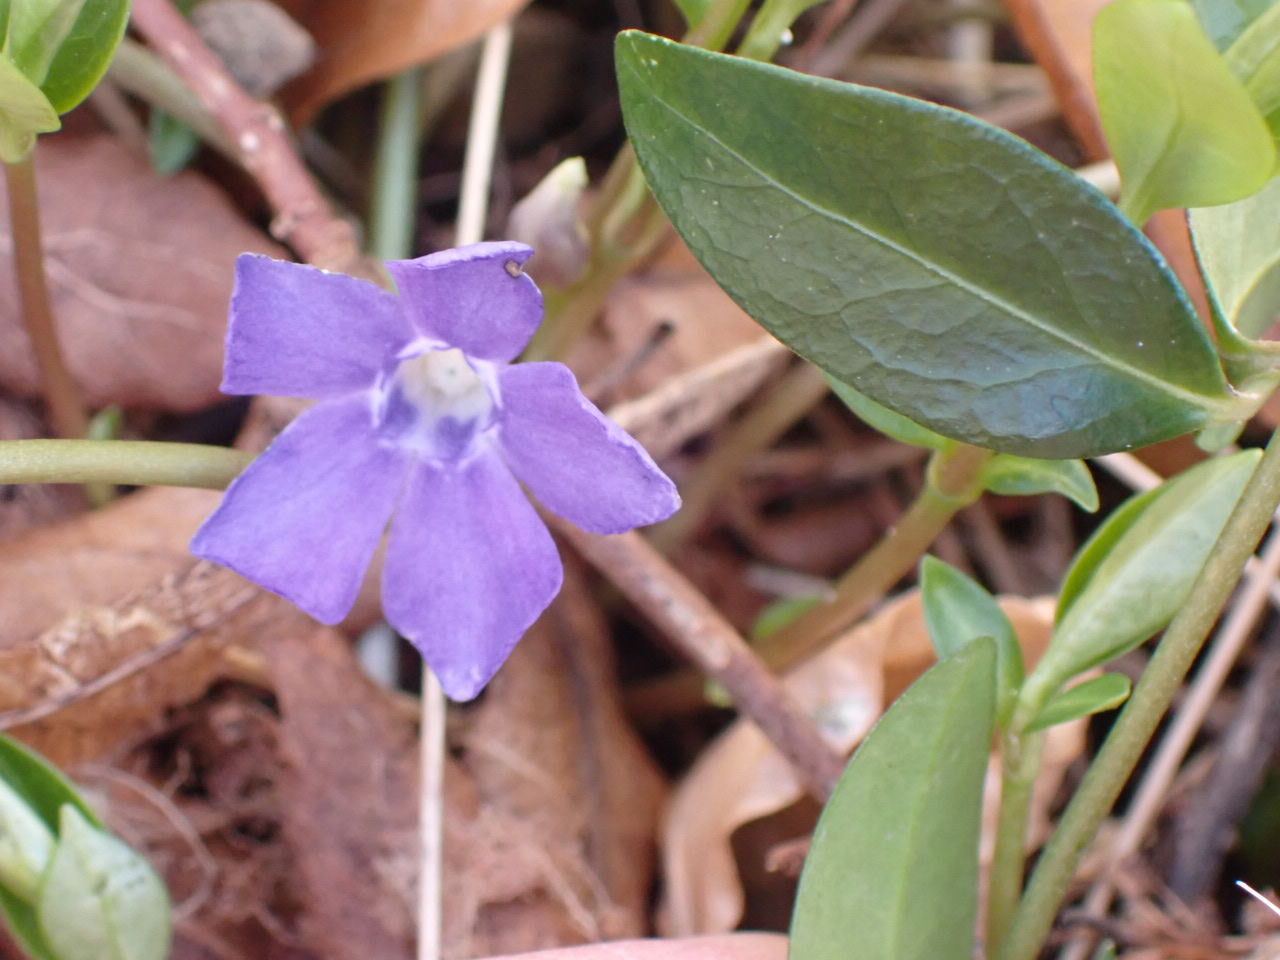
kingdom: Plantae
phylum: Tracheophyta
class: Magnoliopsida
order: Gentianales
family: Apocynaceae
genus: Vinca
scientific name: Vinca minor
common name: Liden singrøn
